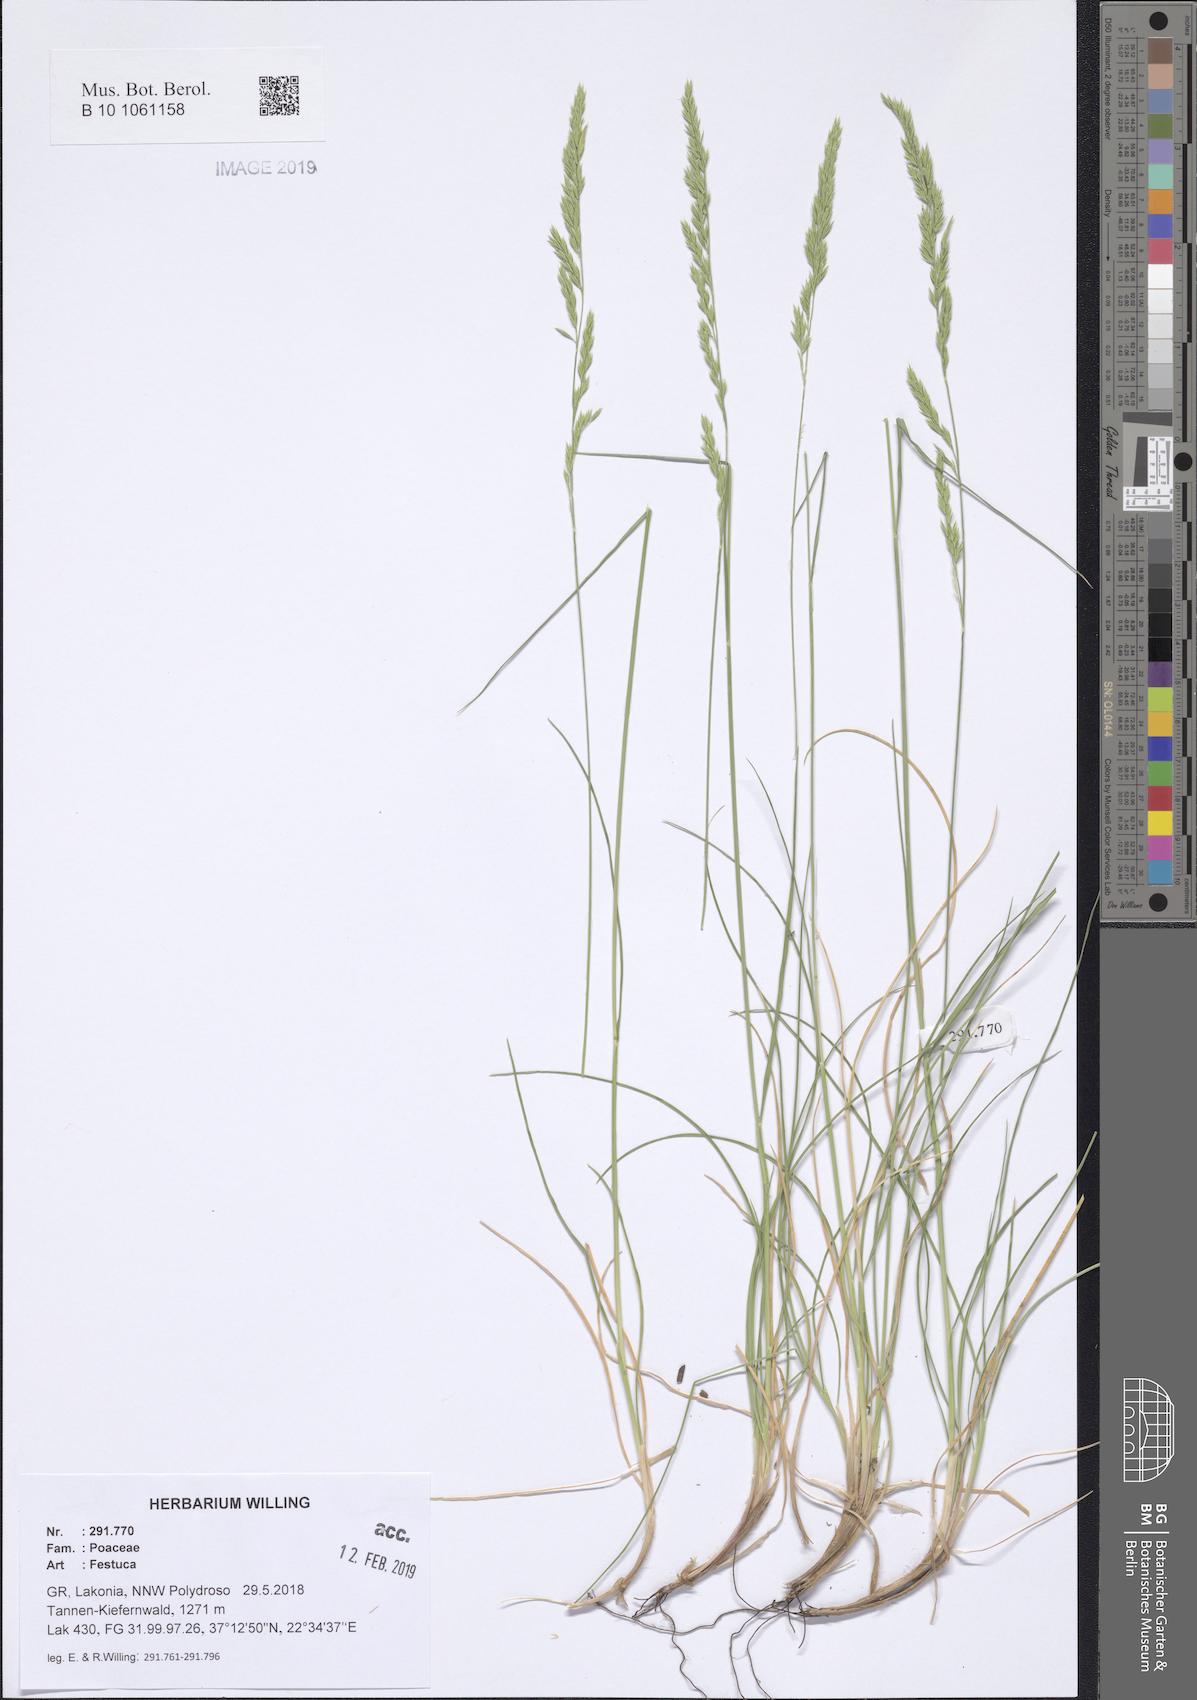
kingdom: Plantae
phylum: Tracheophyta
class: Liliopsida
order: Poales
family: Poaceae
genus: Festuca
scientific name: Festuca
